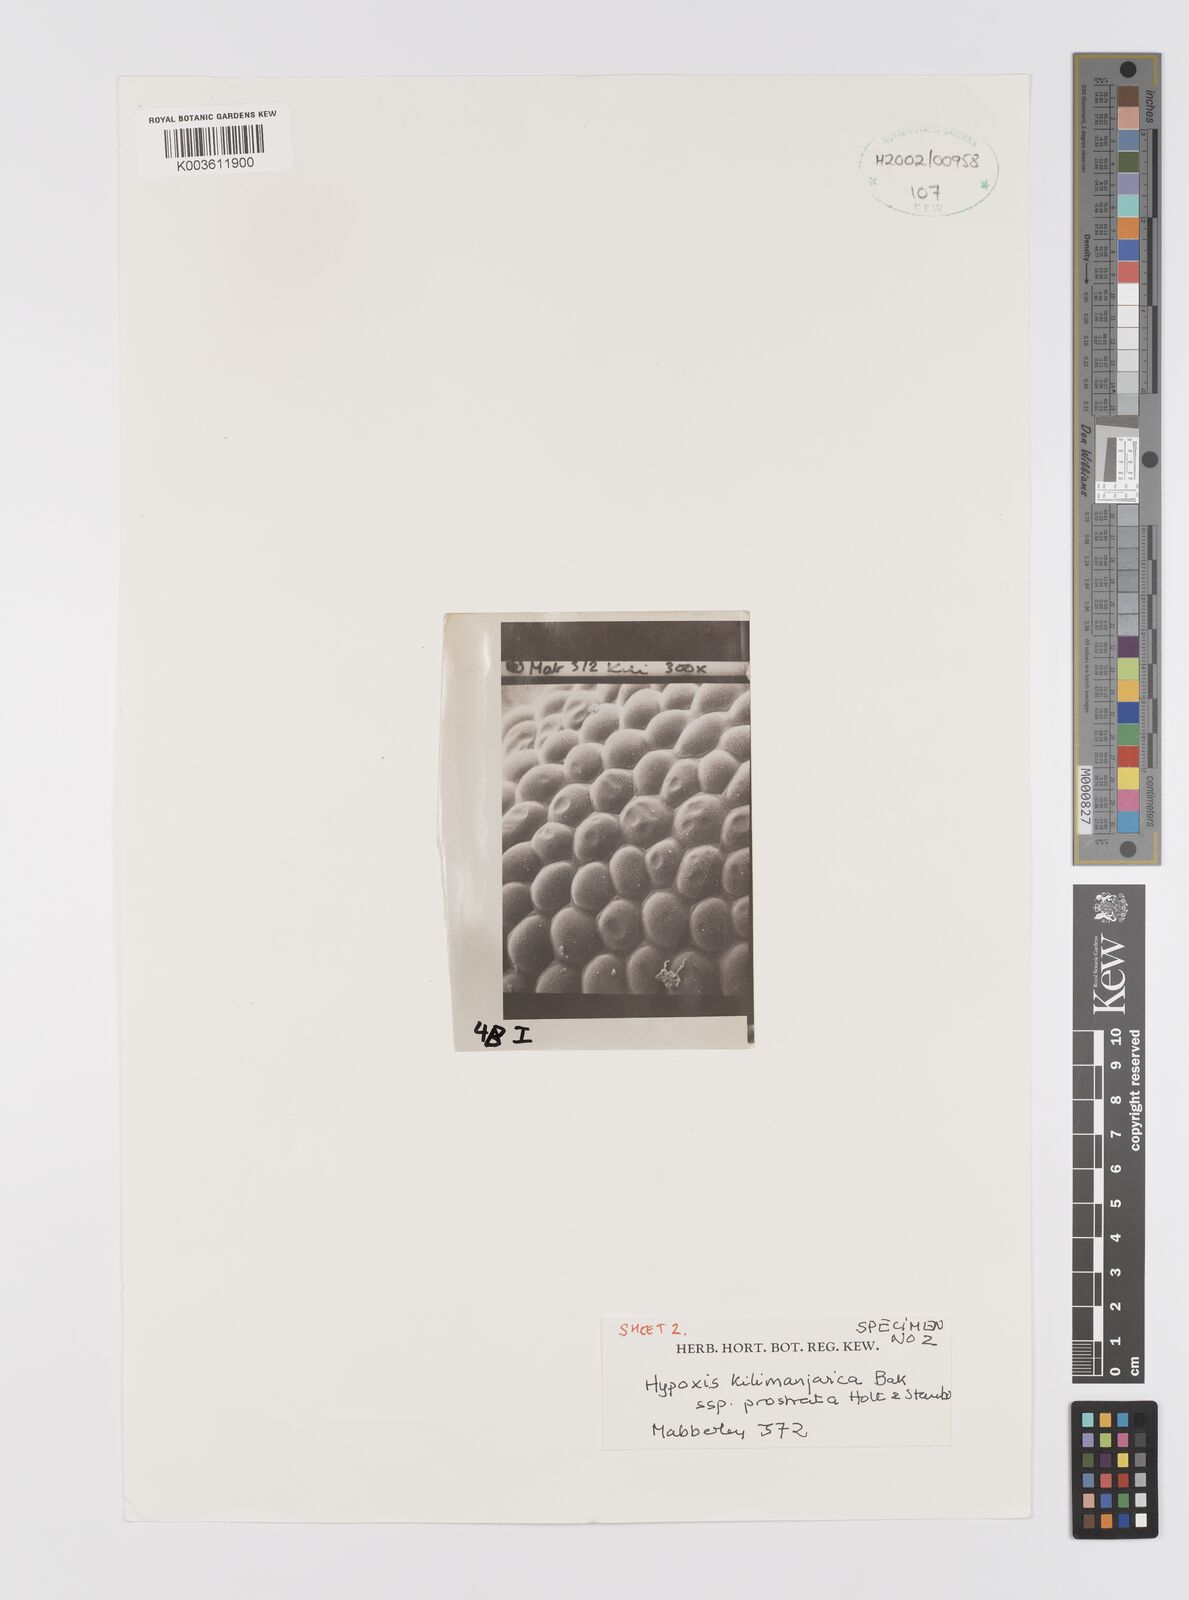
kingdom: Plantae
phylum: Tracheophyta
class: Liliopsida
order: Asparagales
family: Hypoxidaceae
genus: Hypoxis
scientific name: Hypoxis kilimanjarica
